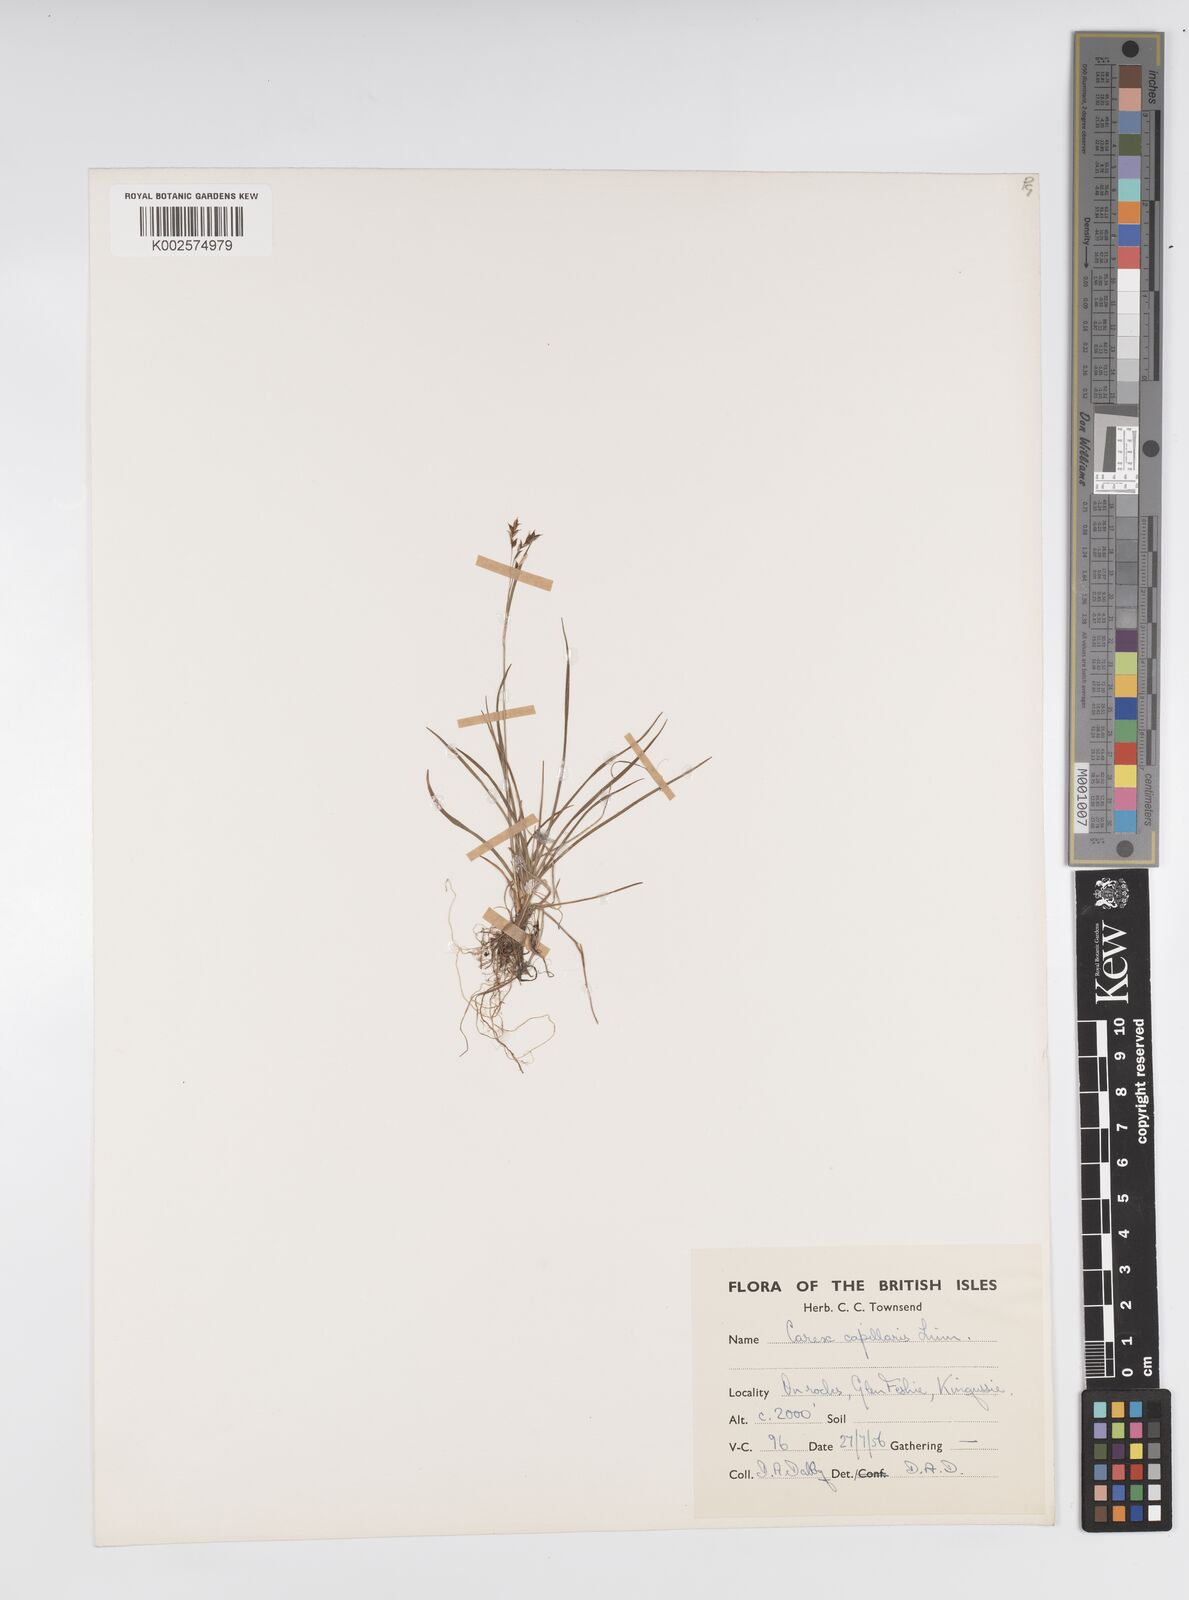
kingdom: Plantae
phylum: Tracheophyta
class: Liliopsida
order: Poales
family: Cyperaceae
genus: Carex
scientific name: Carex capillaris
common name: Hair sedge
